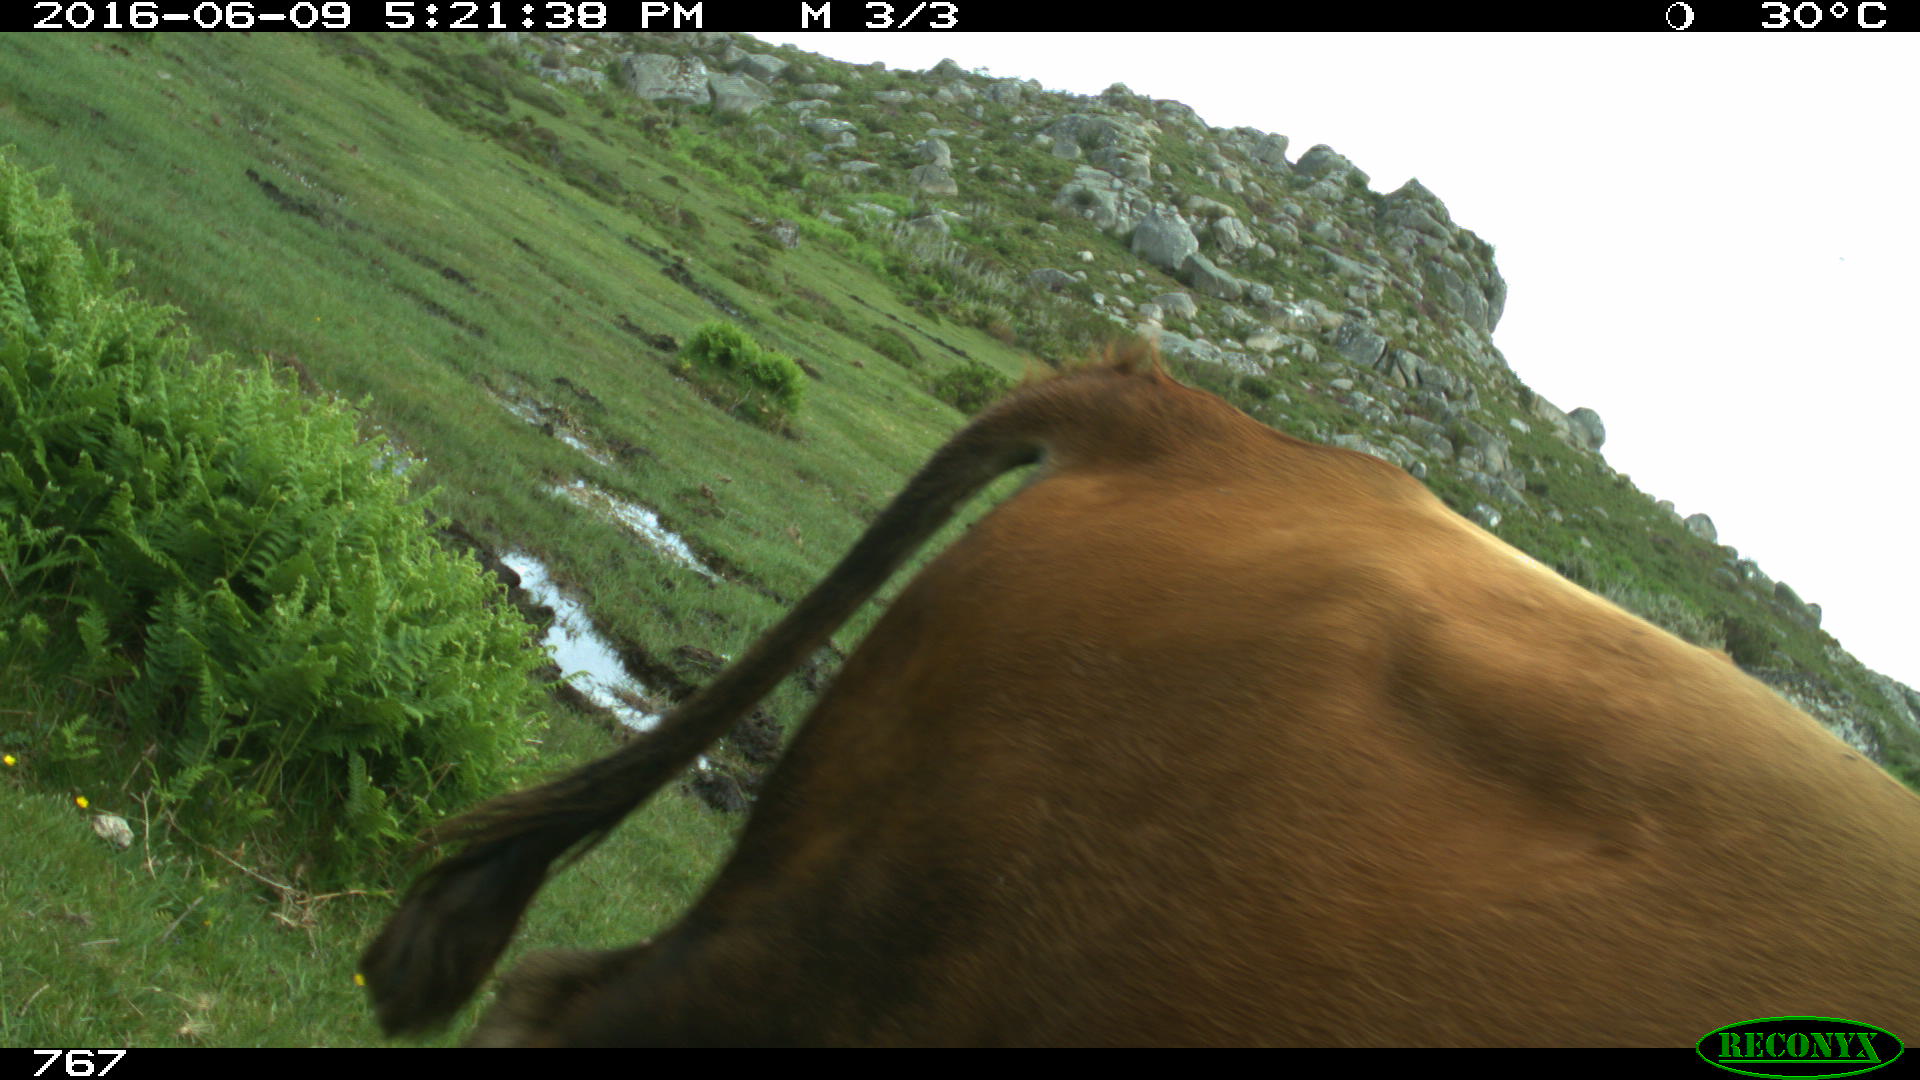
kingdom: Animalia
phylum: Chordata
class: Mammalia
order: Artiodactyla
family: Bovidae
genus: Bos
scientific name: Bos taurus
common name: Domesticated cattle
